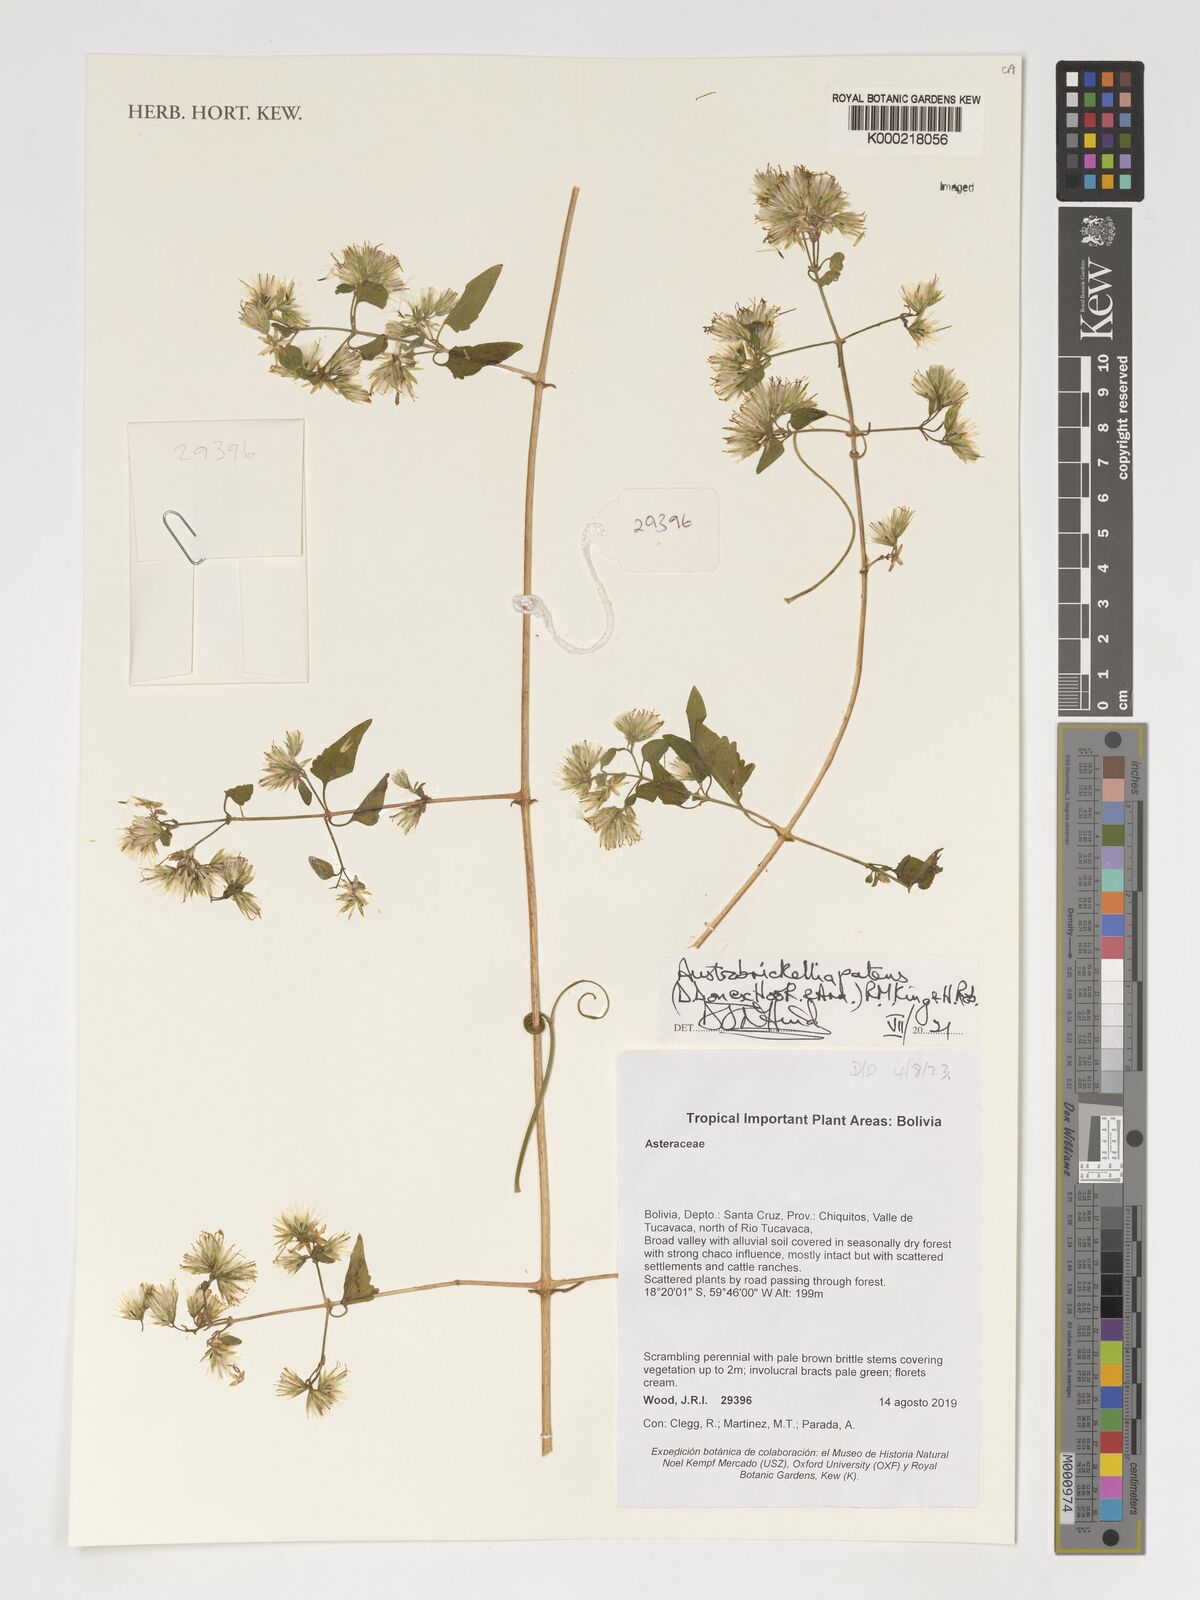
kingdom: Plantae
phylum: Tracheophyta
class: Magnoliopsida
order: Asterales
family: Asteraceae
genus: Austrobrickellia
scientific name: Austrobrickellia patens
